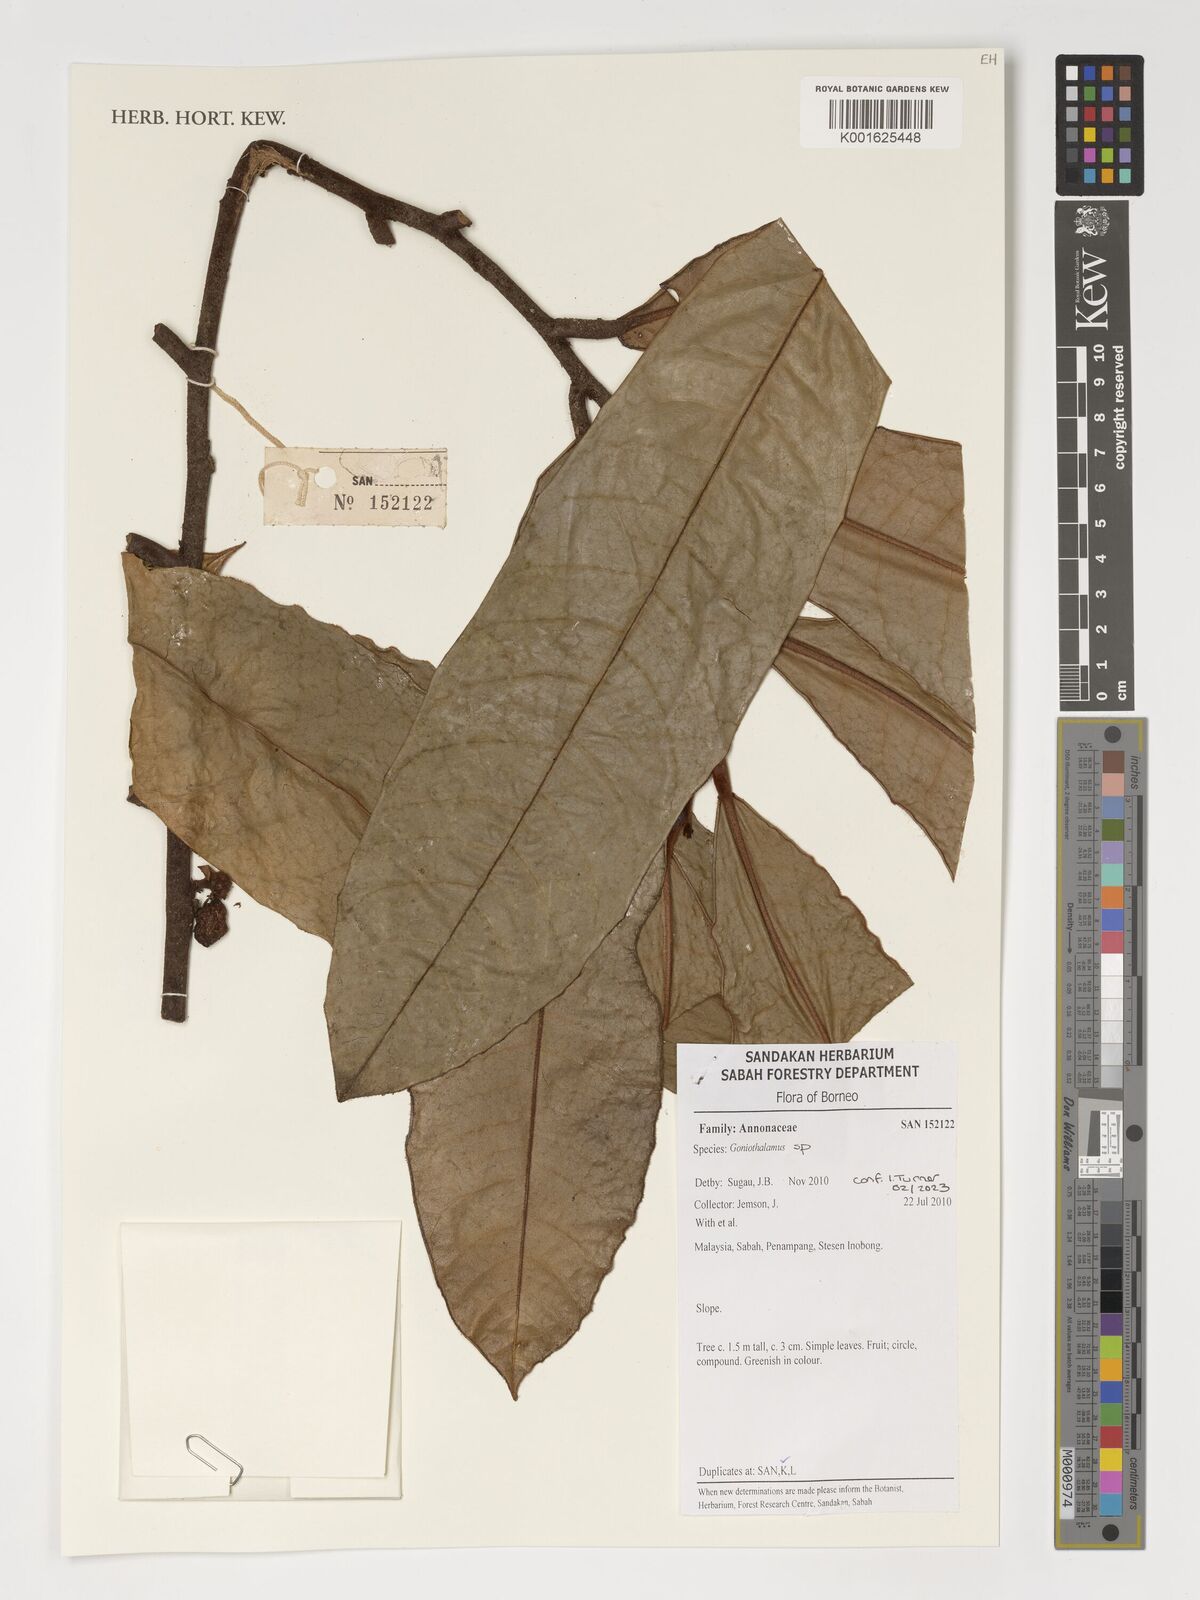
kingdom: Plantae
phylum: Tracheophyta
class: Magnoliopsida
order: Magnoliales
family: Annonaceae
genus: Goniothalamus
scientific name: Goniothalamus
